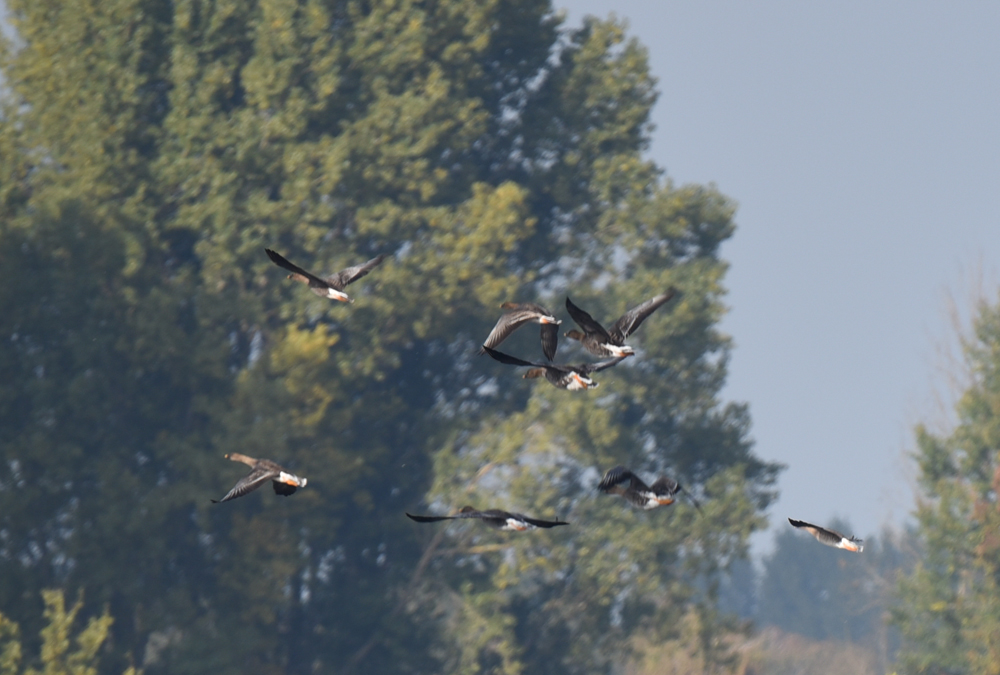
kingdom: Animalia
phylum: Chordata
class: Aves
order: Anseriformes
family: Anatidae
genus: Anser
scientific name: Anser fabalis
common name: Bean goose
